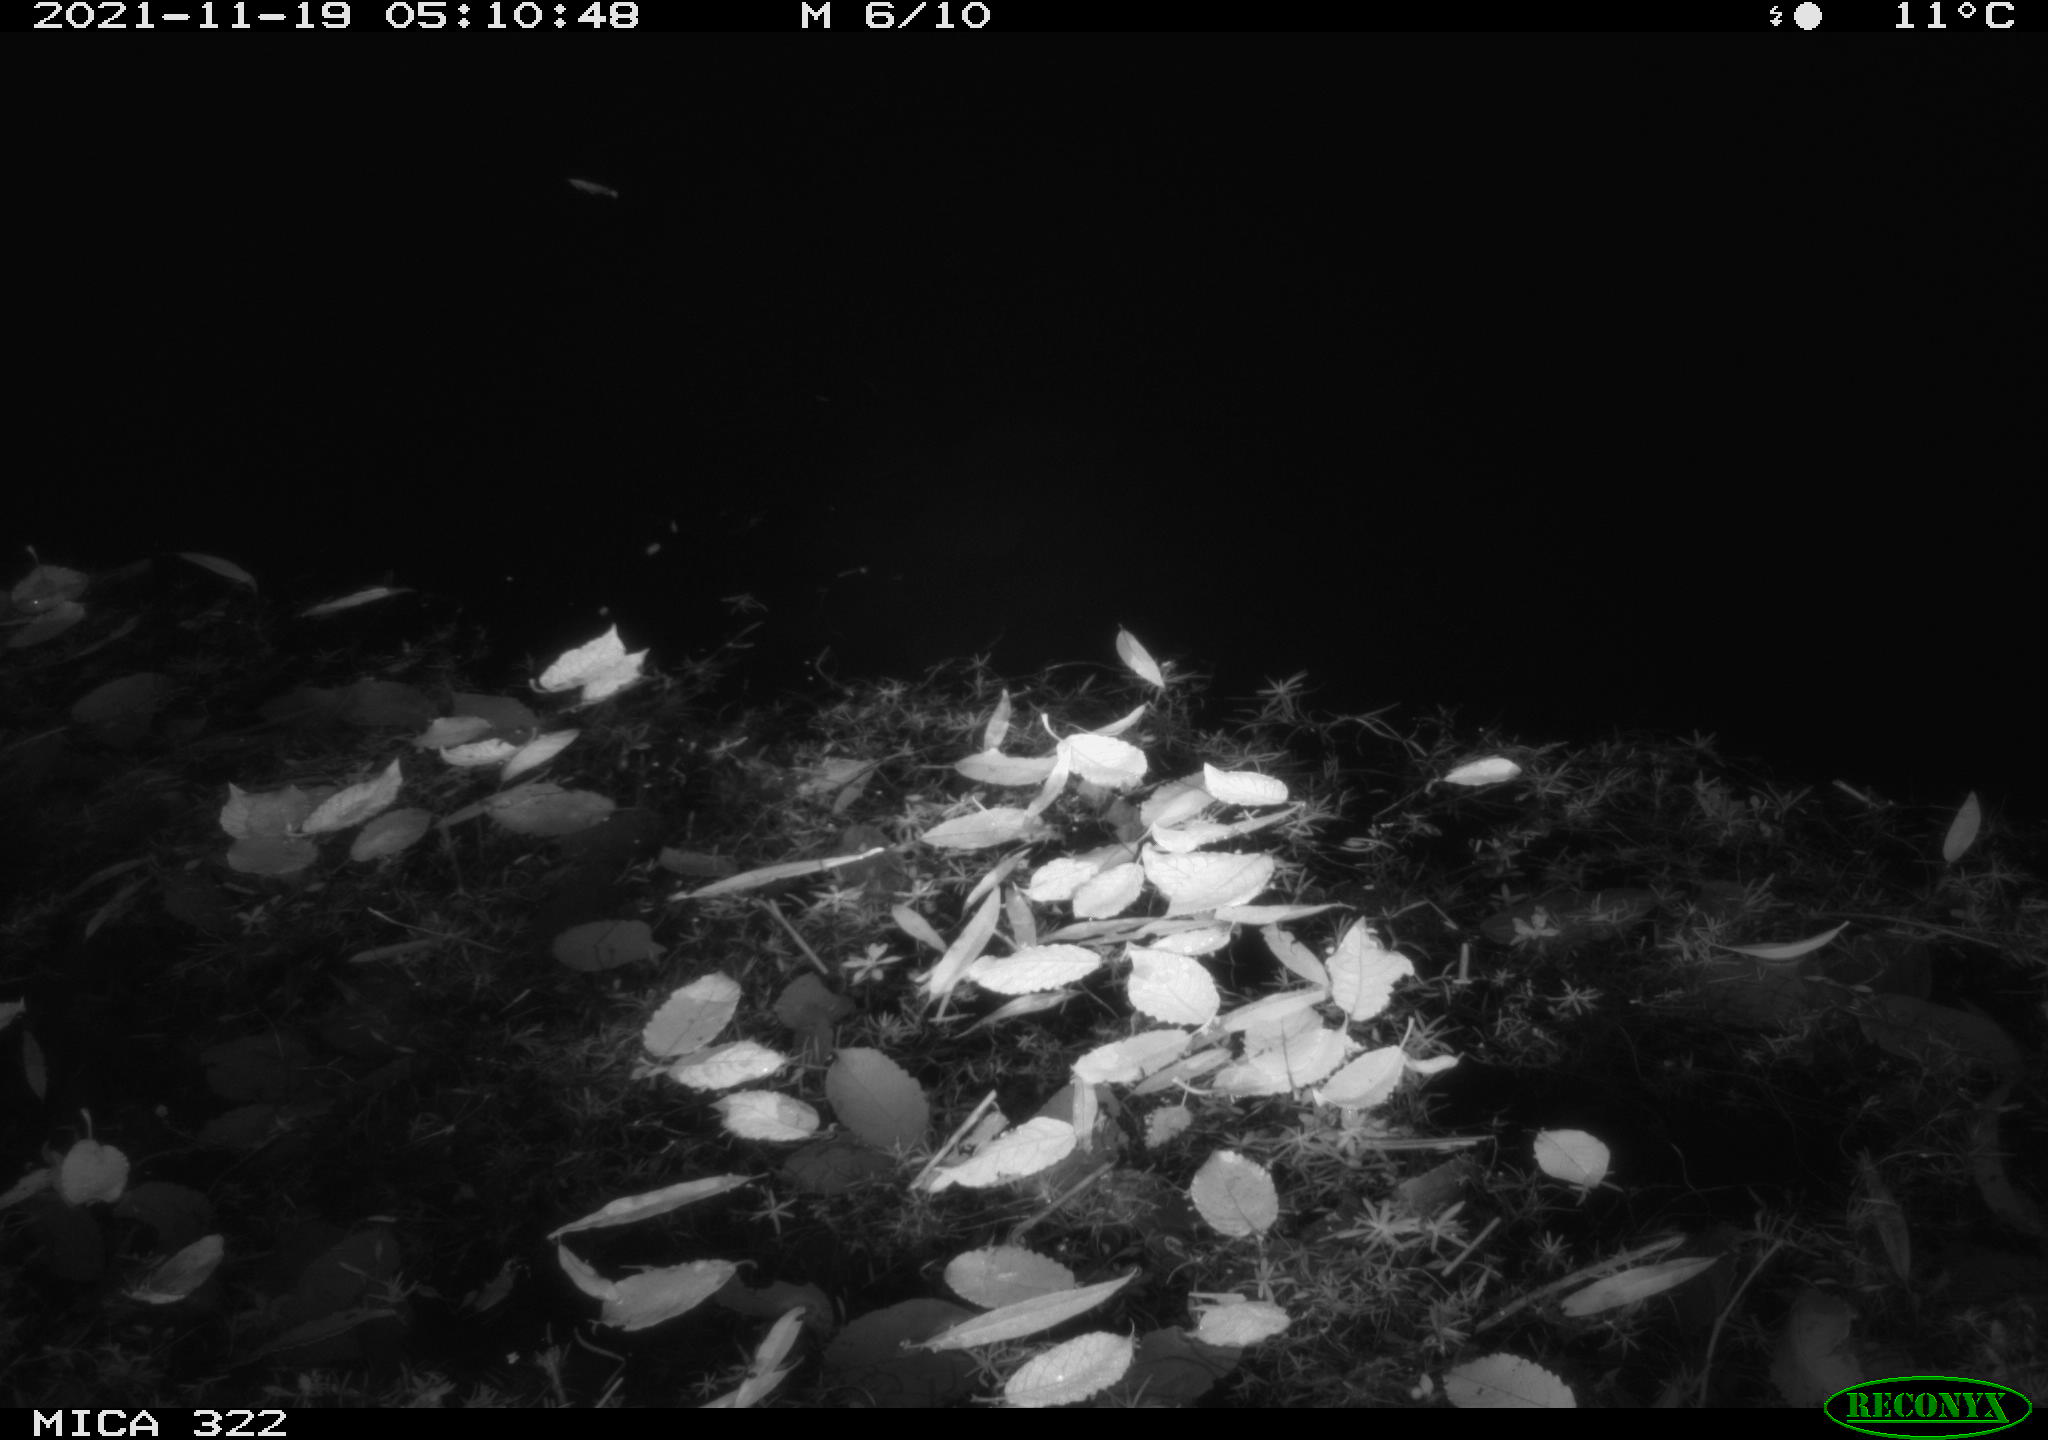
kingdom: Animalia
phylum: Chordata
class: Mammalia
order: Rodentia
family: Muridae
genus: Rattus
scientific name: Rattus norvegicus
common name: Brown rat
